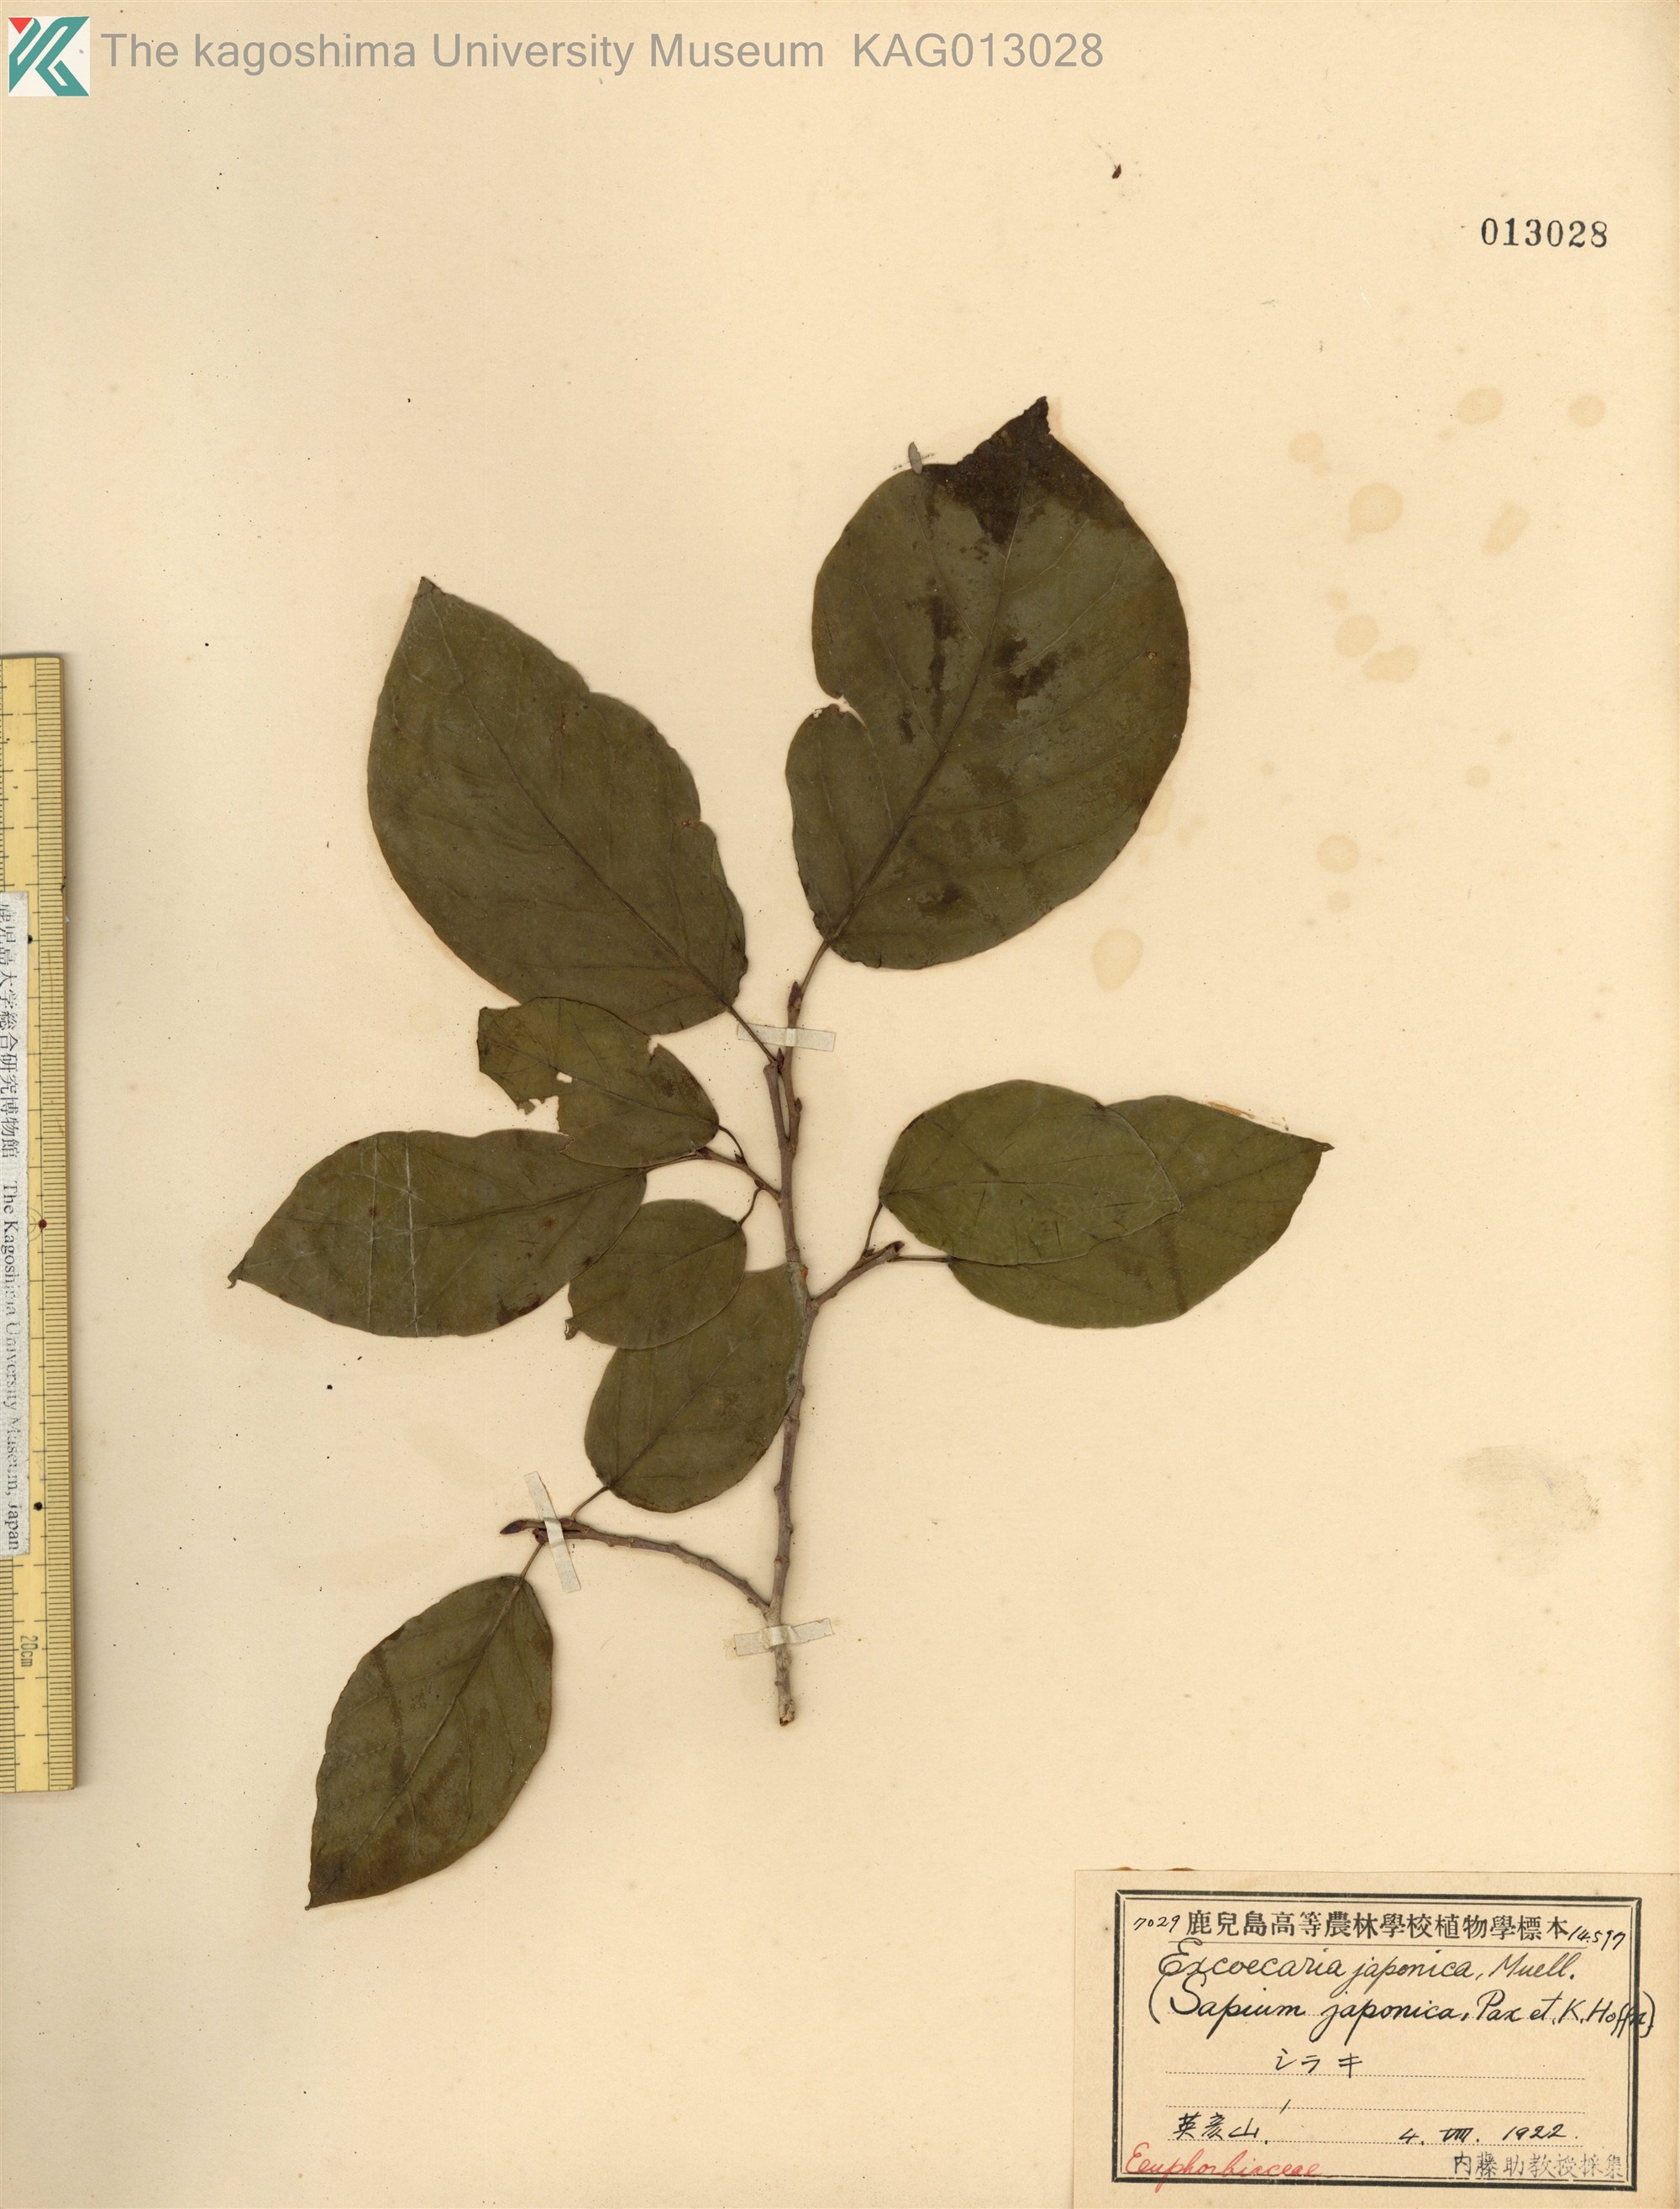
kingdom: Plantae
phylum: Tracheophyta
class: Magnoliopsida
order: Malpighiales
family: Euphorbiaceae
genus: Neoshirakia
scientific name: Neoshirakia japonica
